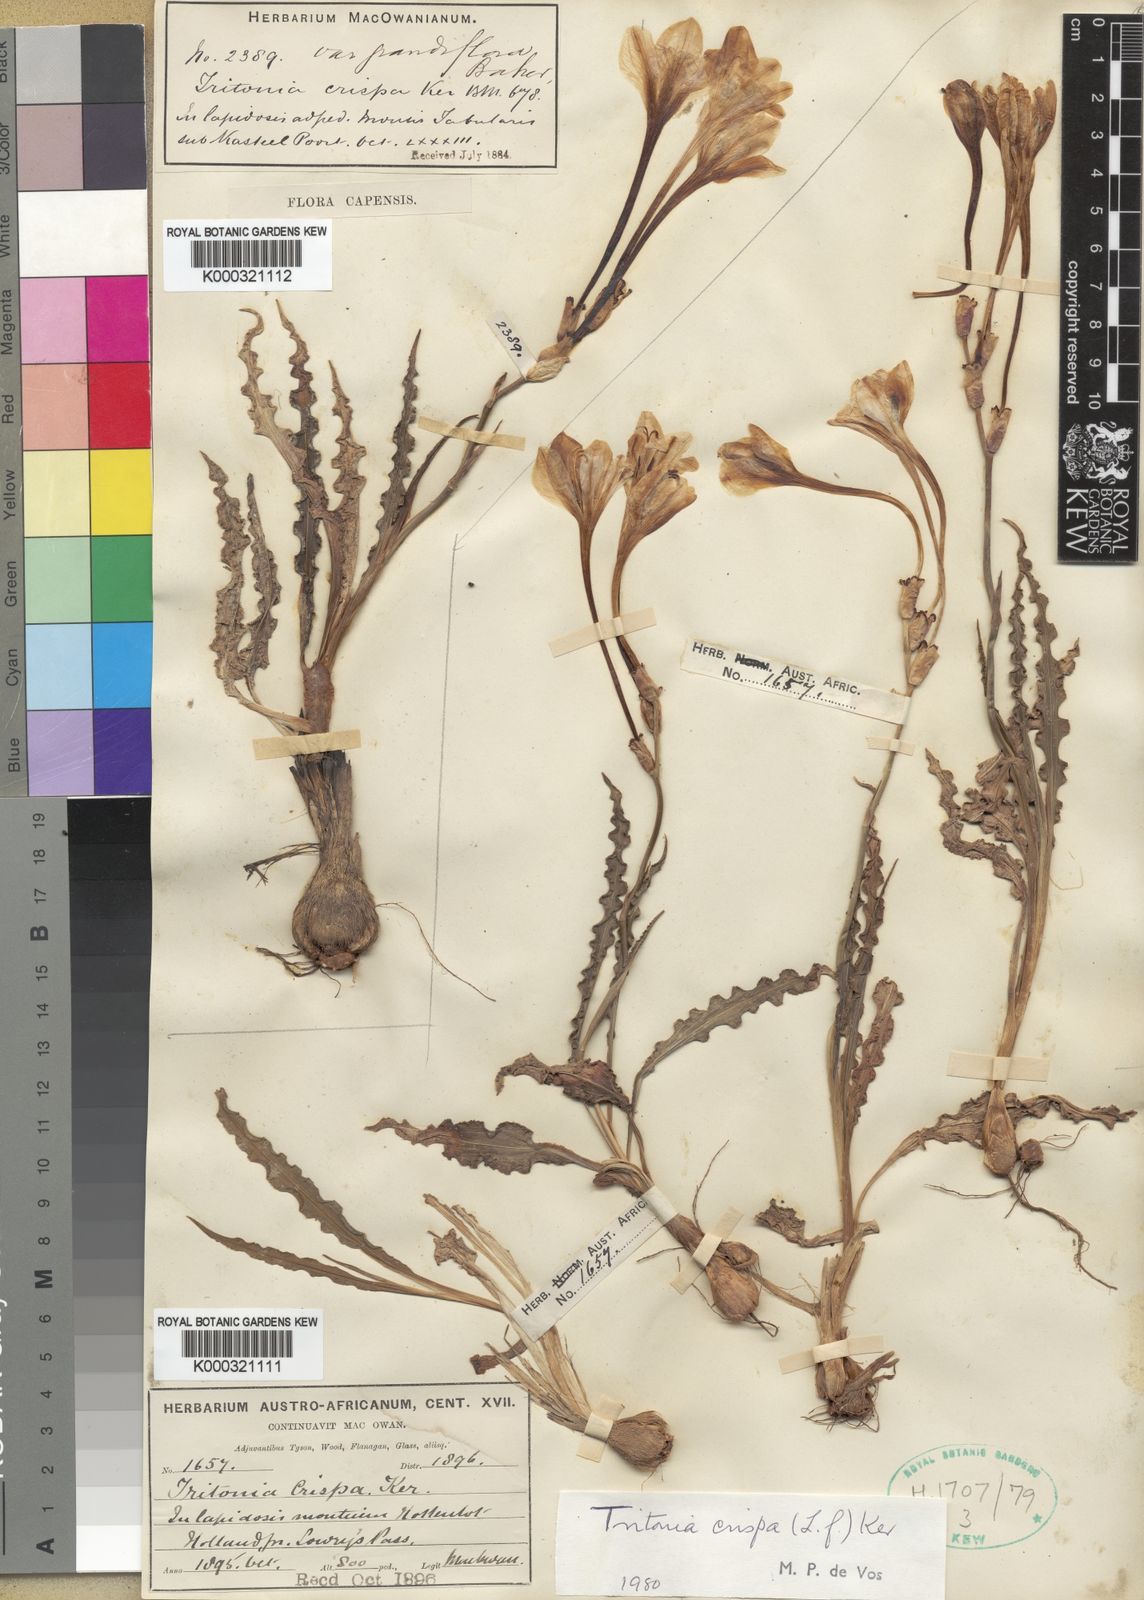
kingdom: Plantae
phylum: Tracheophyta
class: Liliopsida
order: Asparagales
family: Iridaceae
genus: Tritonia
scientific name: Tritonia undulata
